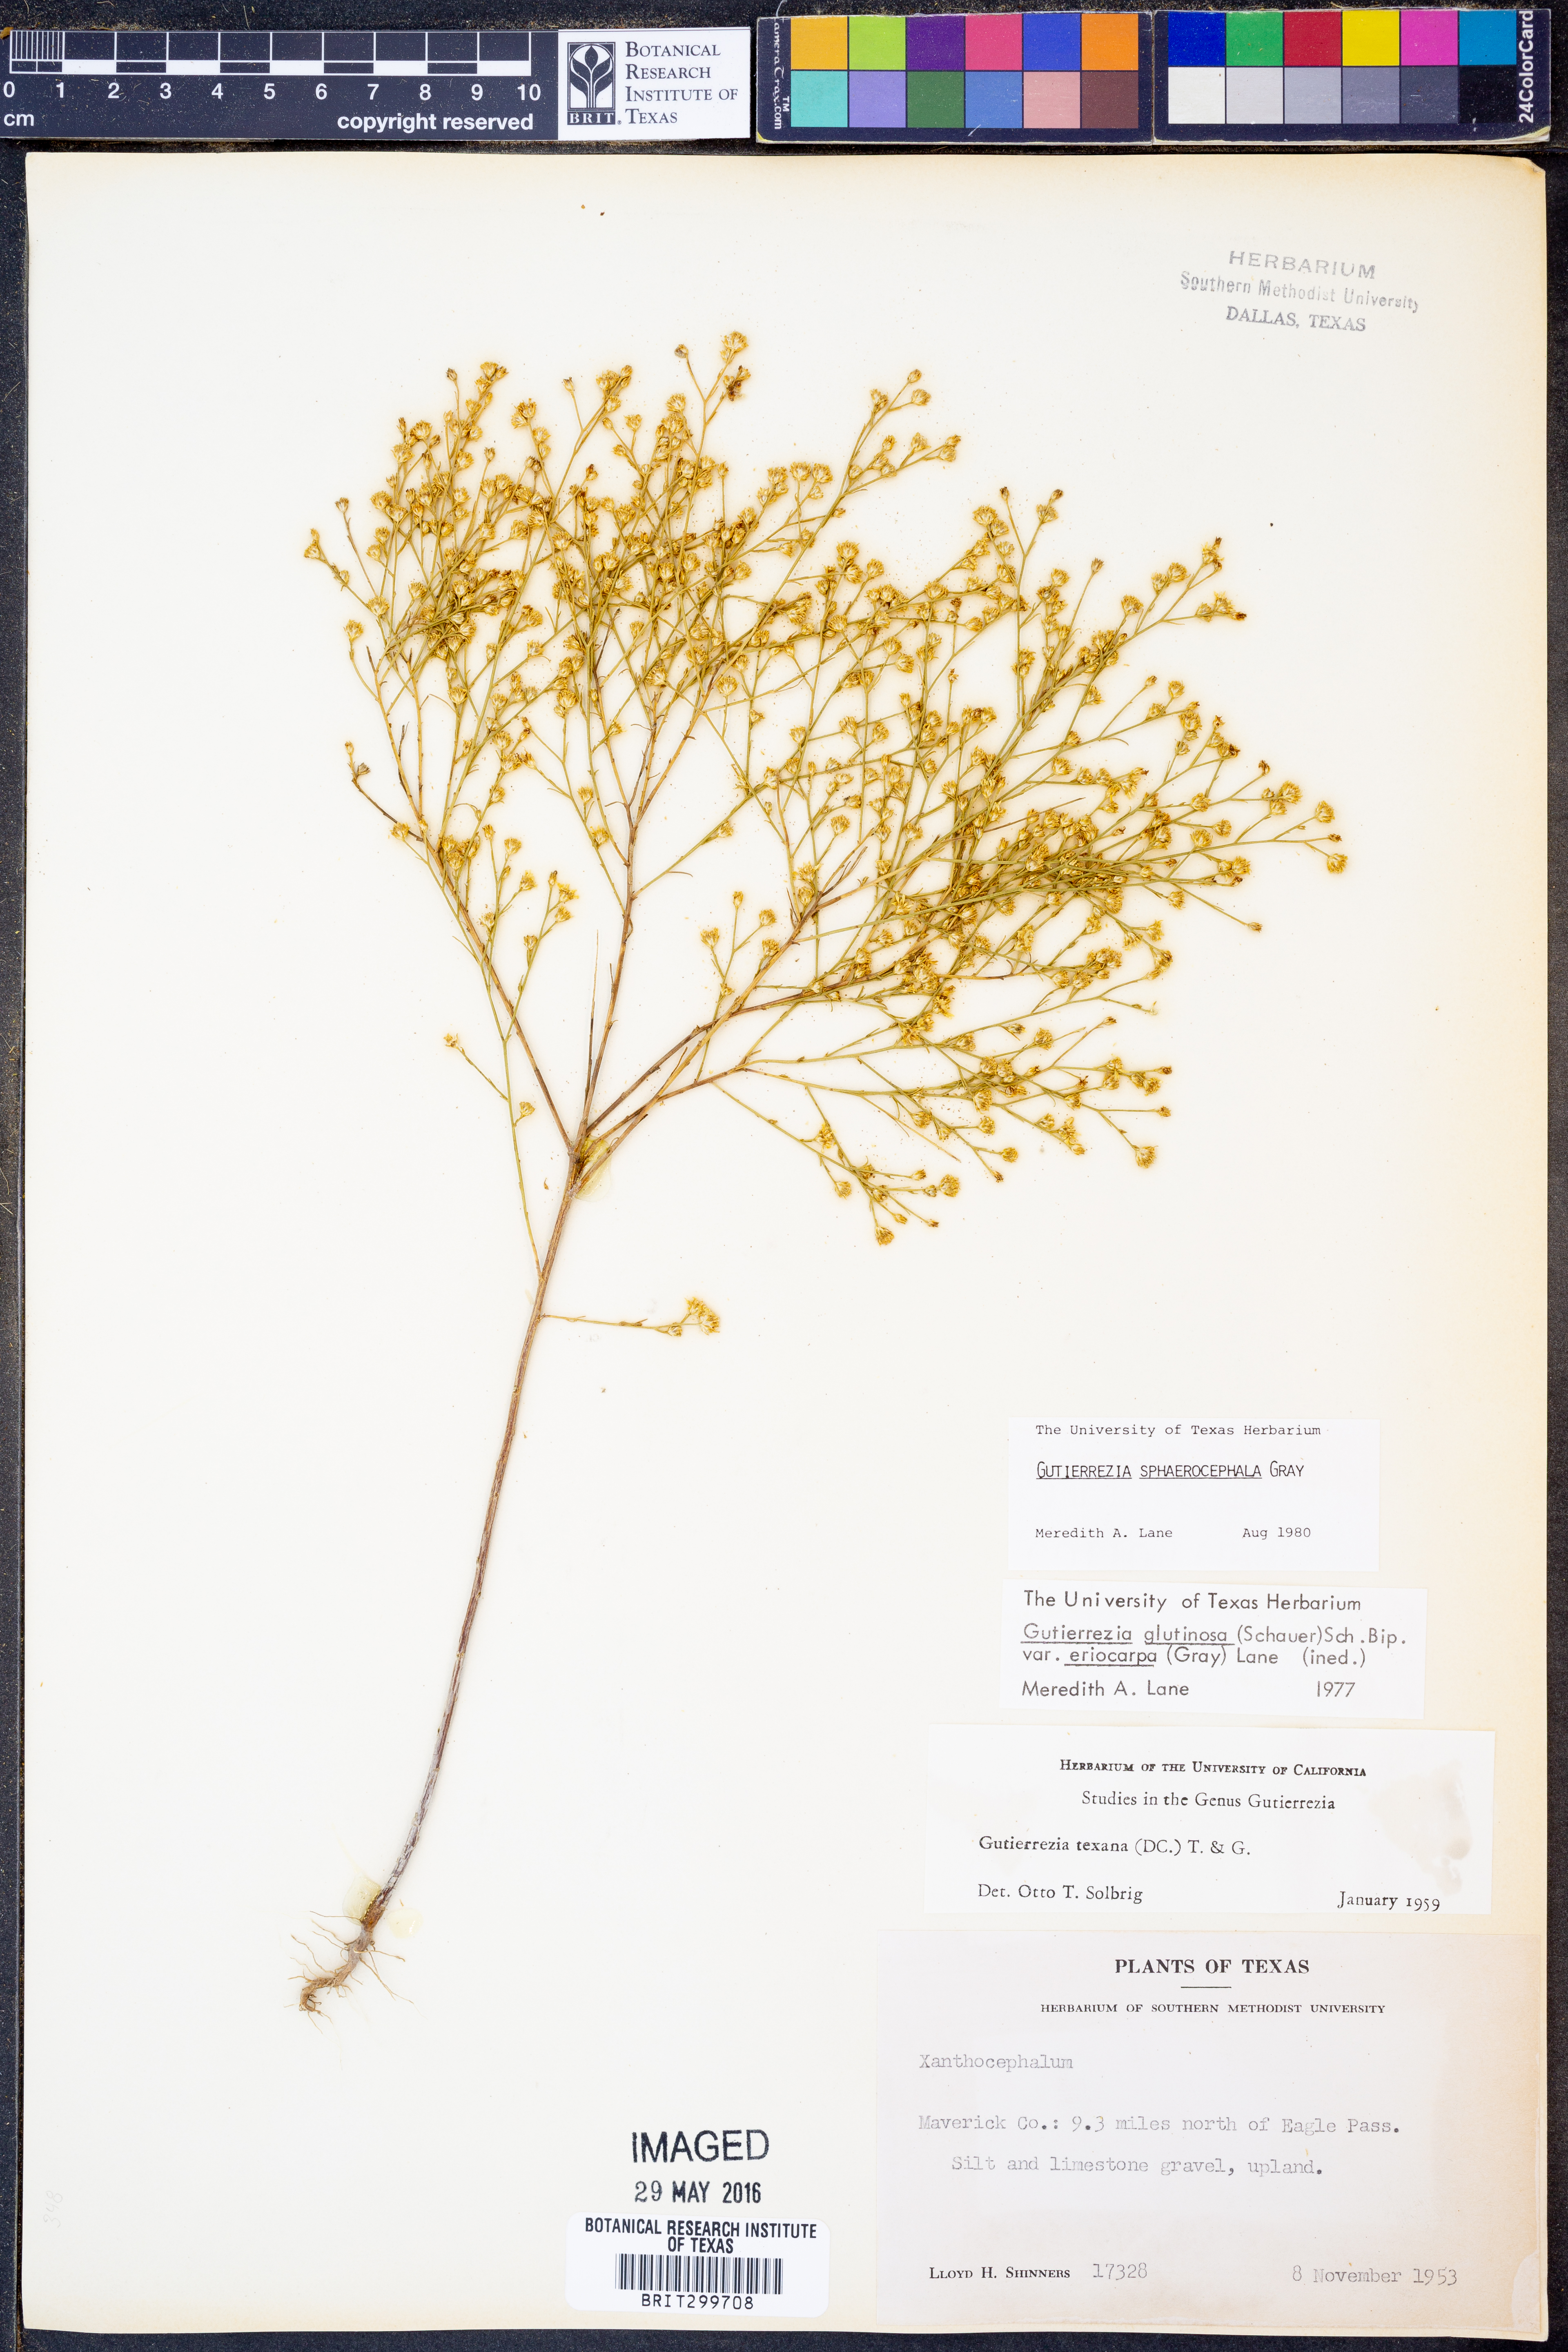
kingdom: Plantae
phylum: Tracheophyta
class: Magnoliopsida
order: Asterales
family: Asteraceae
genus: Gutierrezia
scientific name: Gutierrezia sphaerocephala
